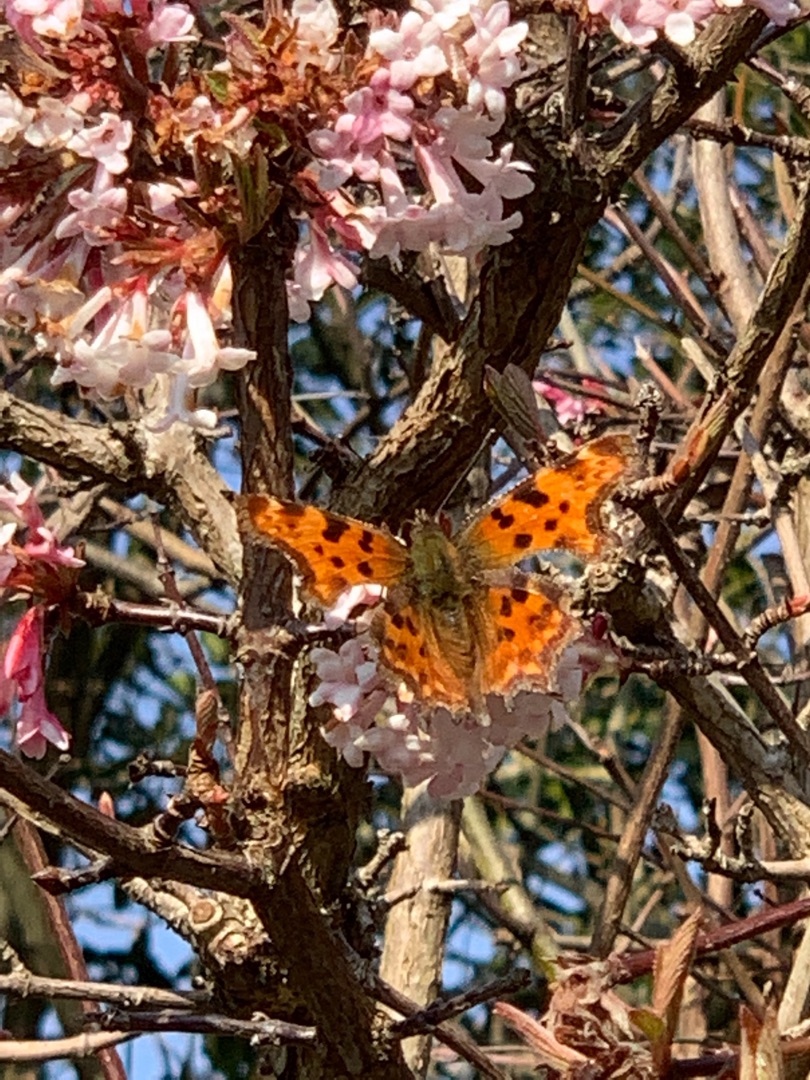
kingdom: Animalia
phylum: Arthropoda
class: Insecta
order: Lepidoptera
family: Nymphalidae
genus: Polygonia
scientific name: Polygonia c-album
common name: Det hvide C
